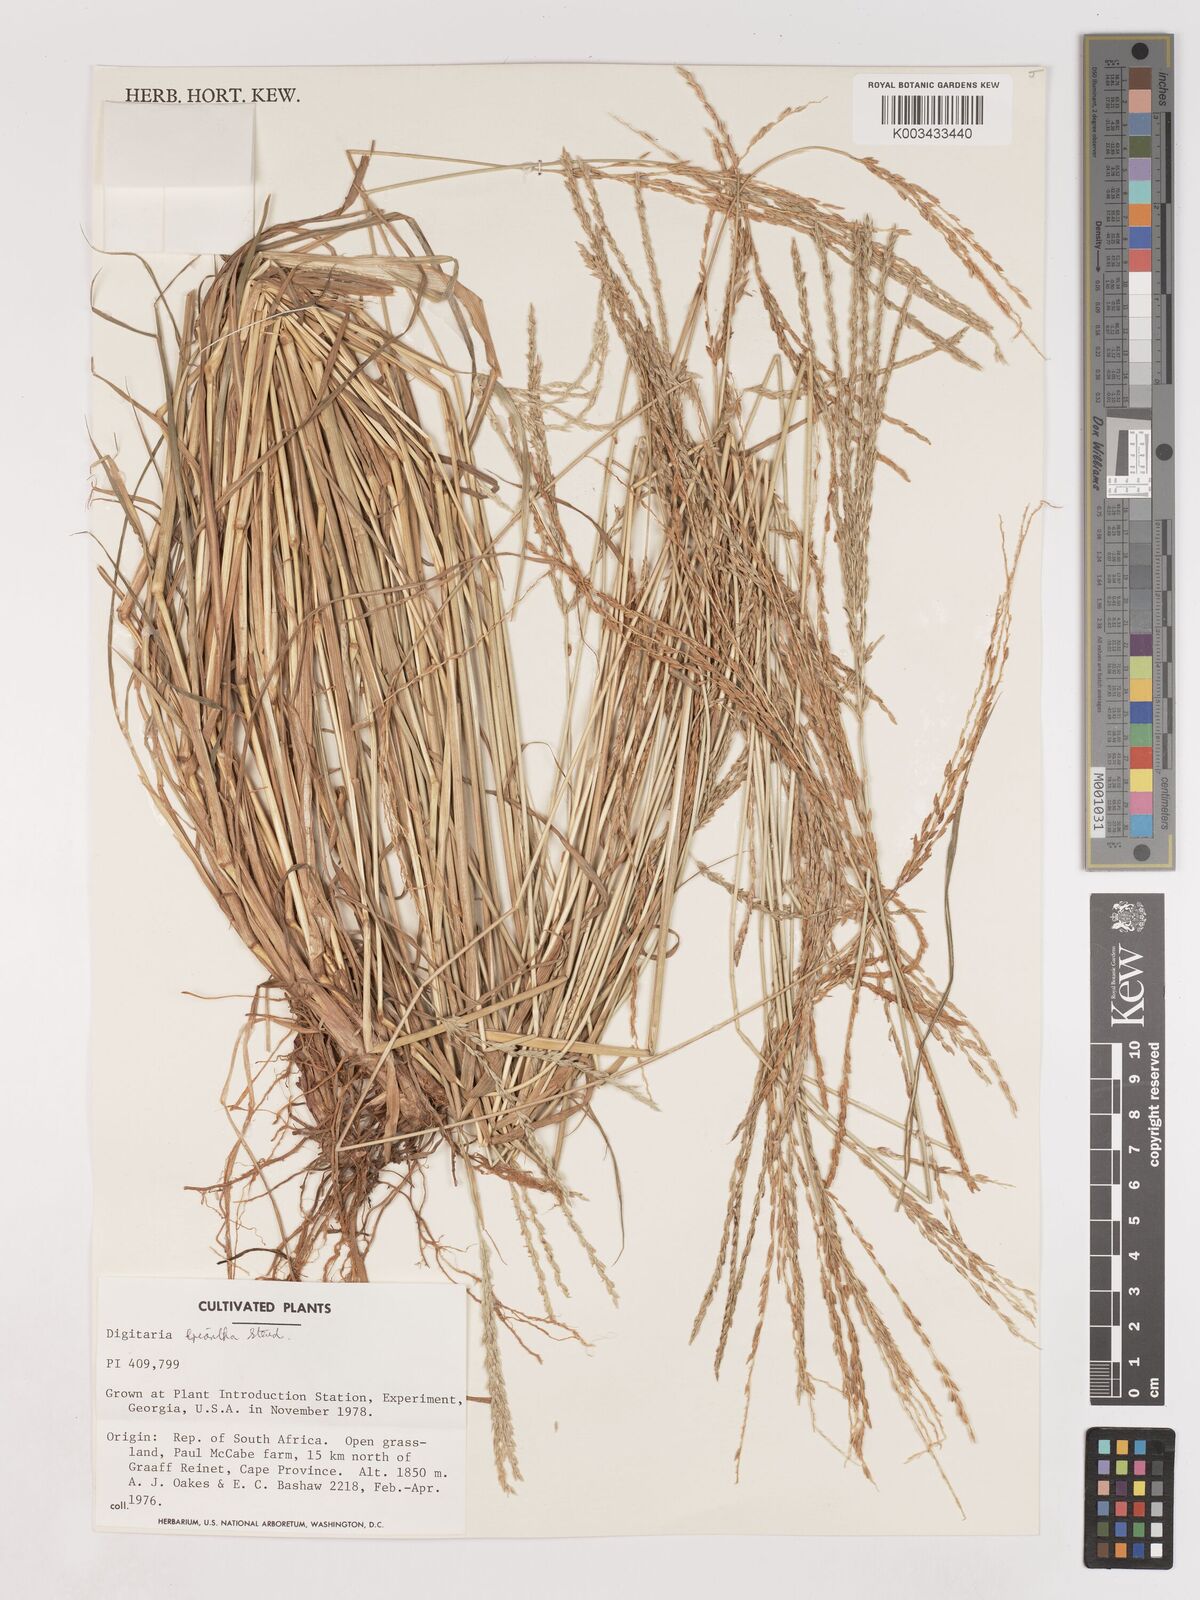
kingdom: Plantae
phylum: Tracheophyta
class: Liliopsida
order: Poales
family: Poaceae
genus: Digitaria
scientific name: Digitaria eriantha
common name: Digitgrass
